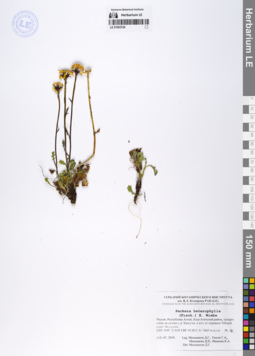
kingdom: Plantae
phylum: Tracheophyta
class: Magnoliopsida
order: Asterales
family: Asteraceae
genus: Packera
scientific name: Packera heterophylla
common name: Arctic butterweed
